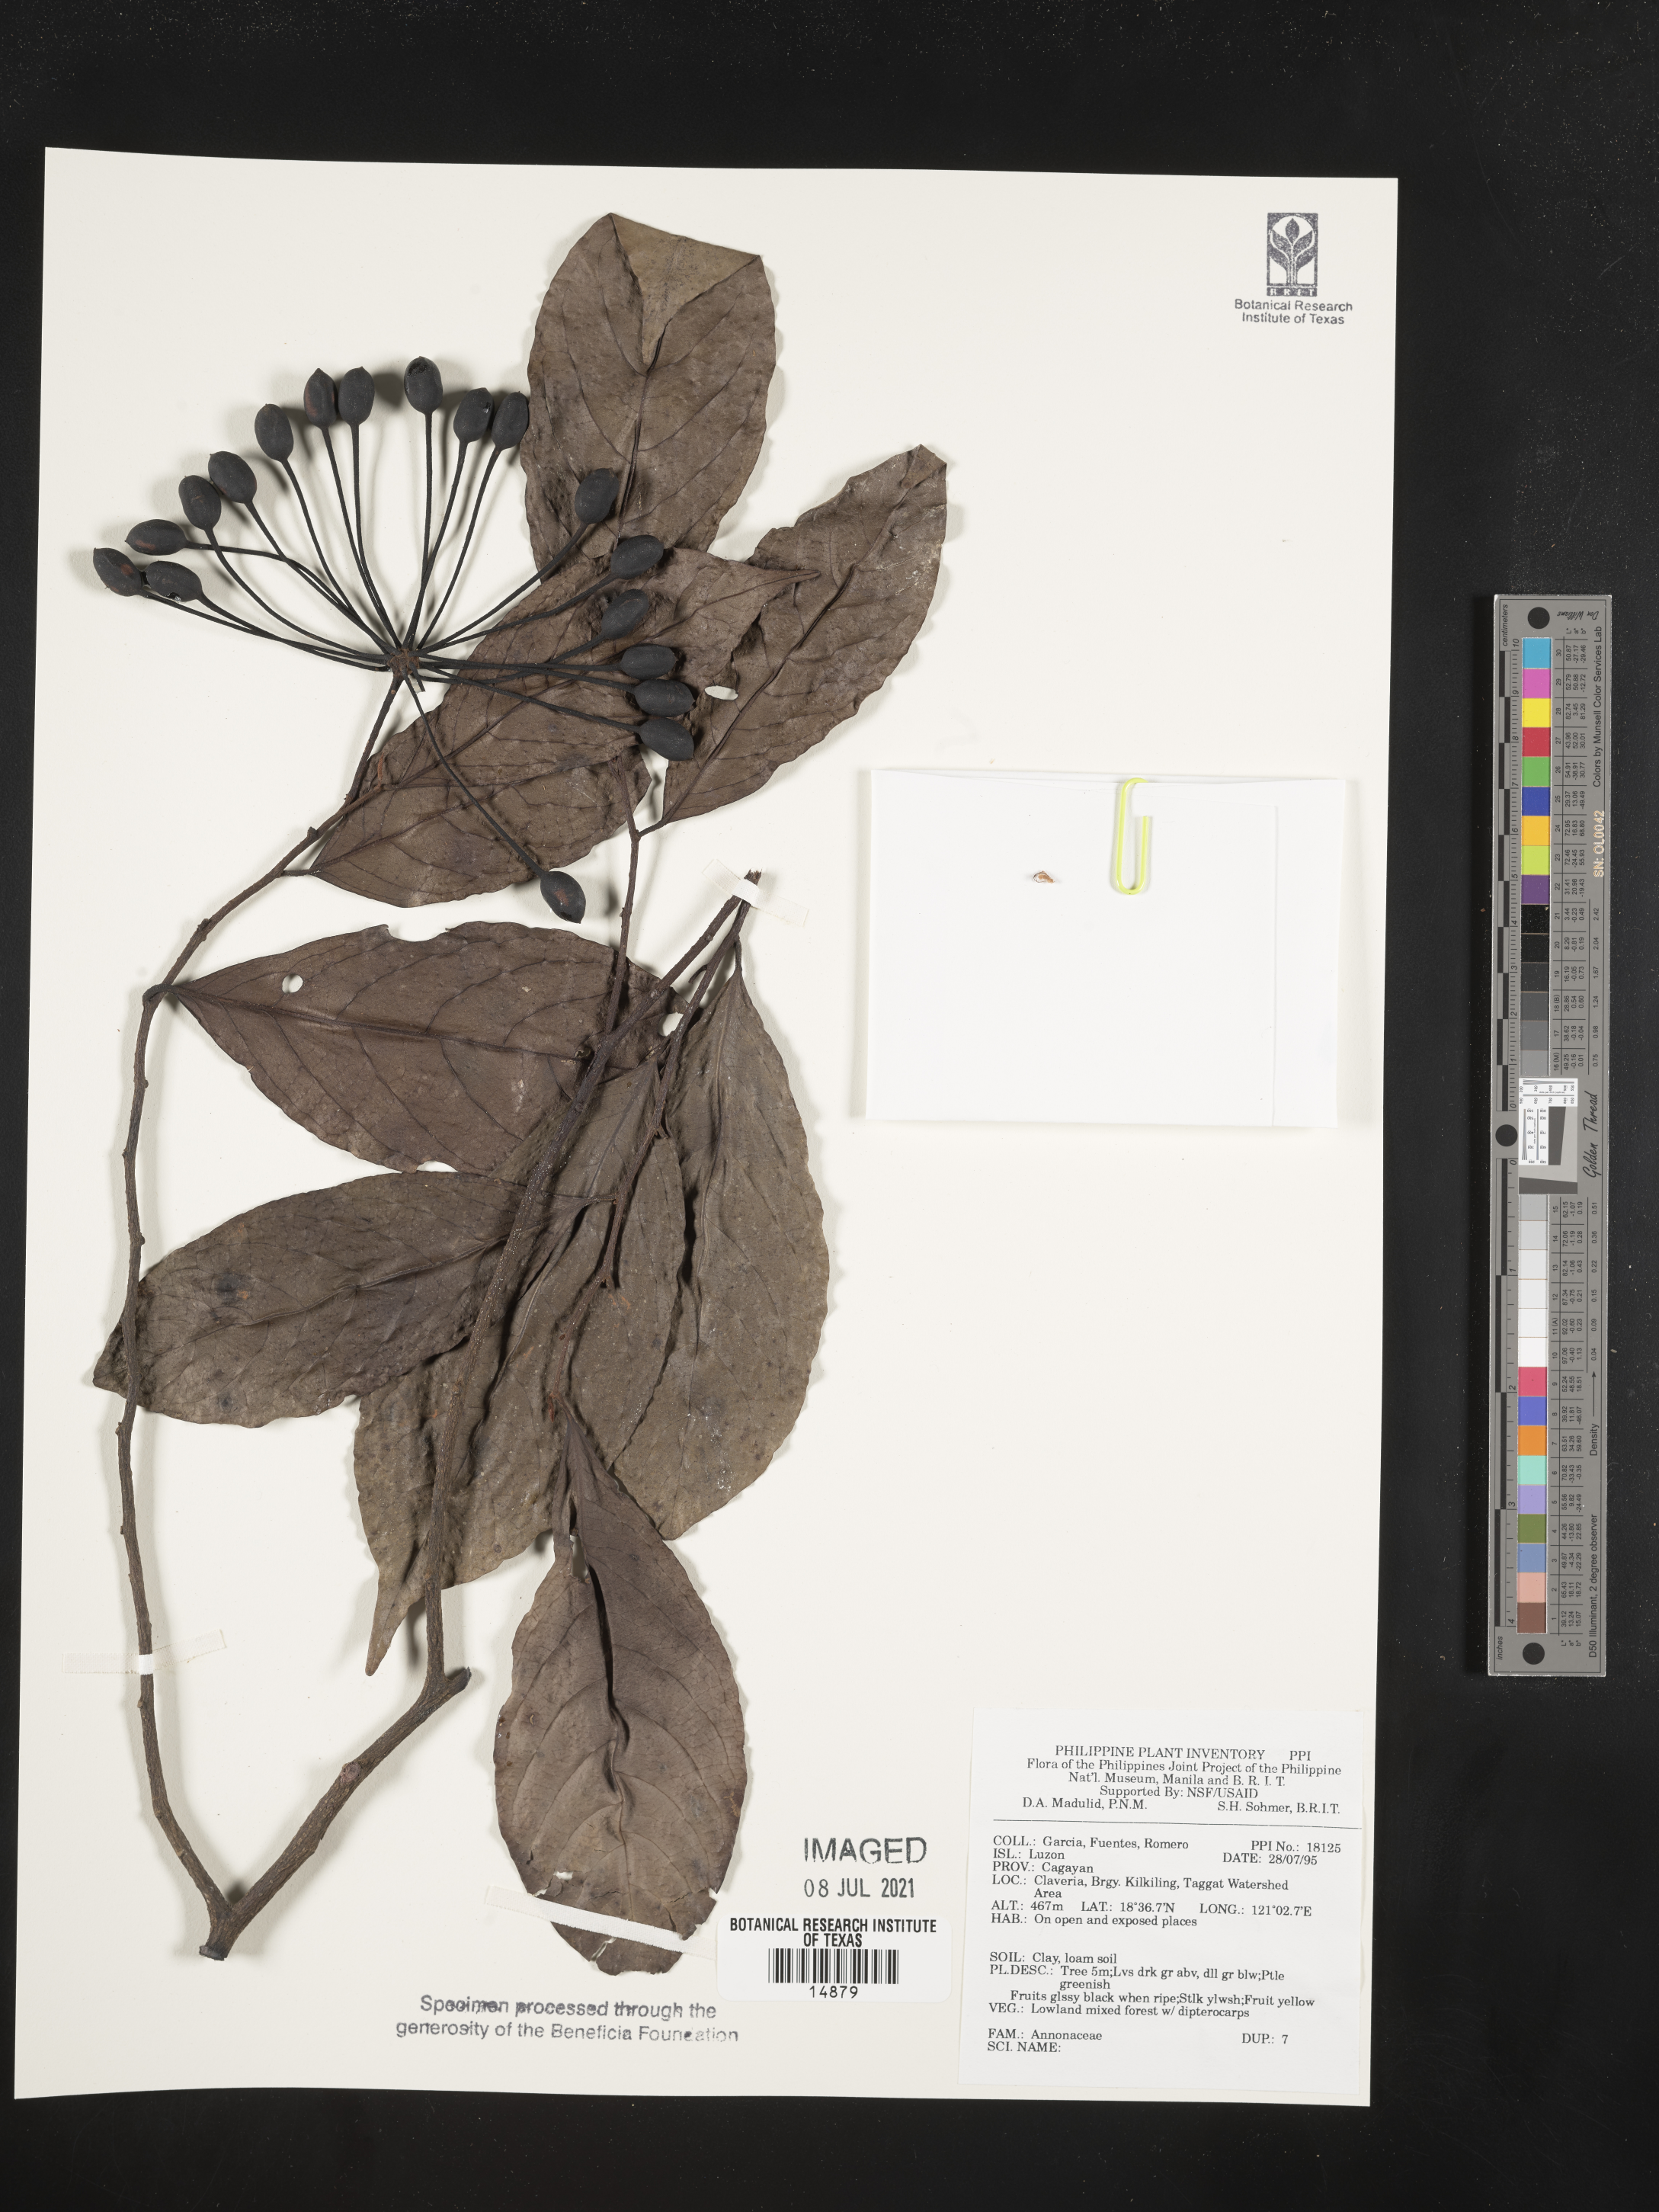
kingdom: Plantae
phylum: Tracheophyta
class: Magnoliopsida
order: Magnoliales
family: Annonaceae
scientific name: Annonaceae
